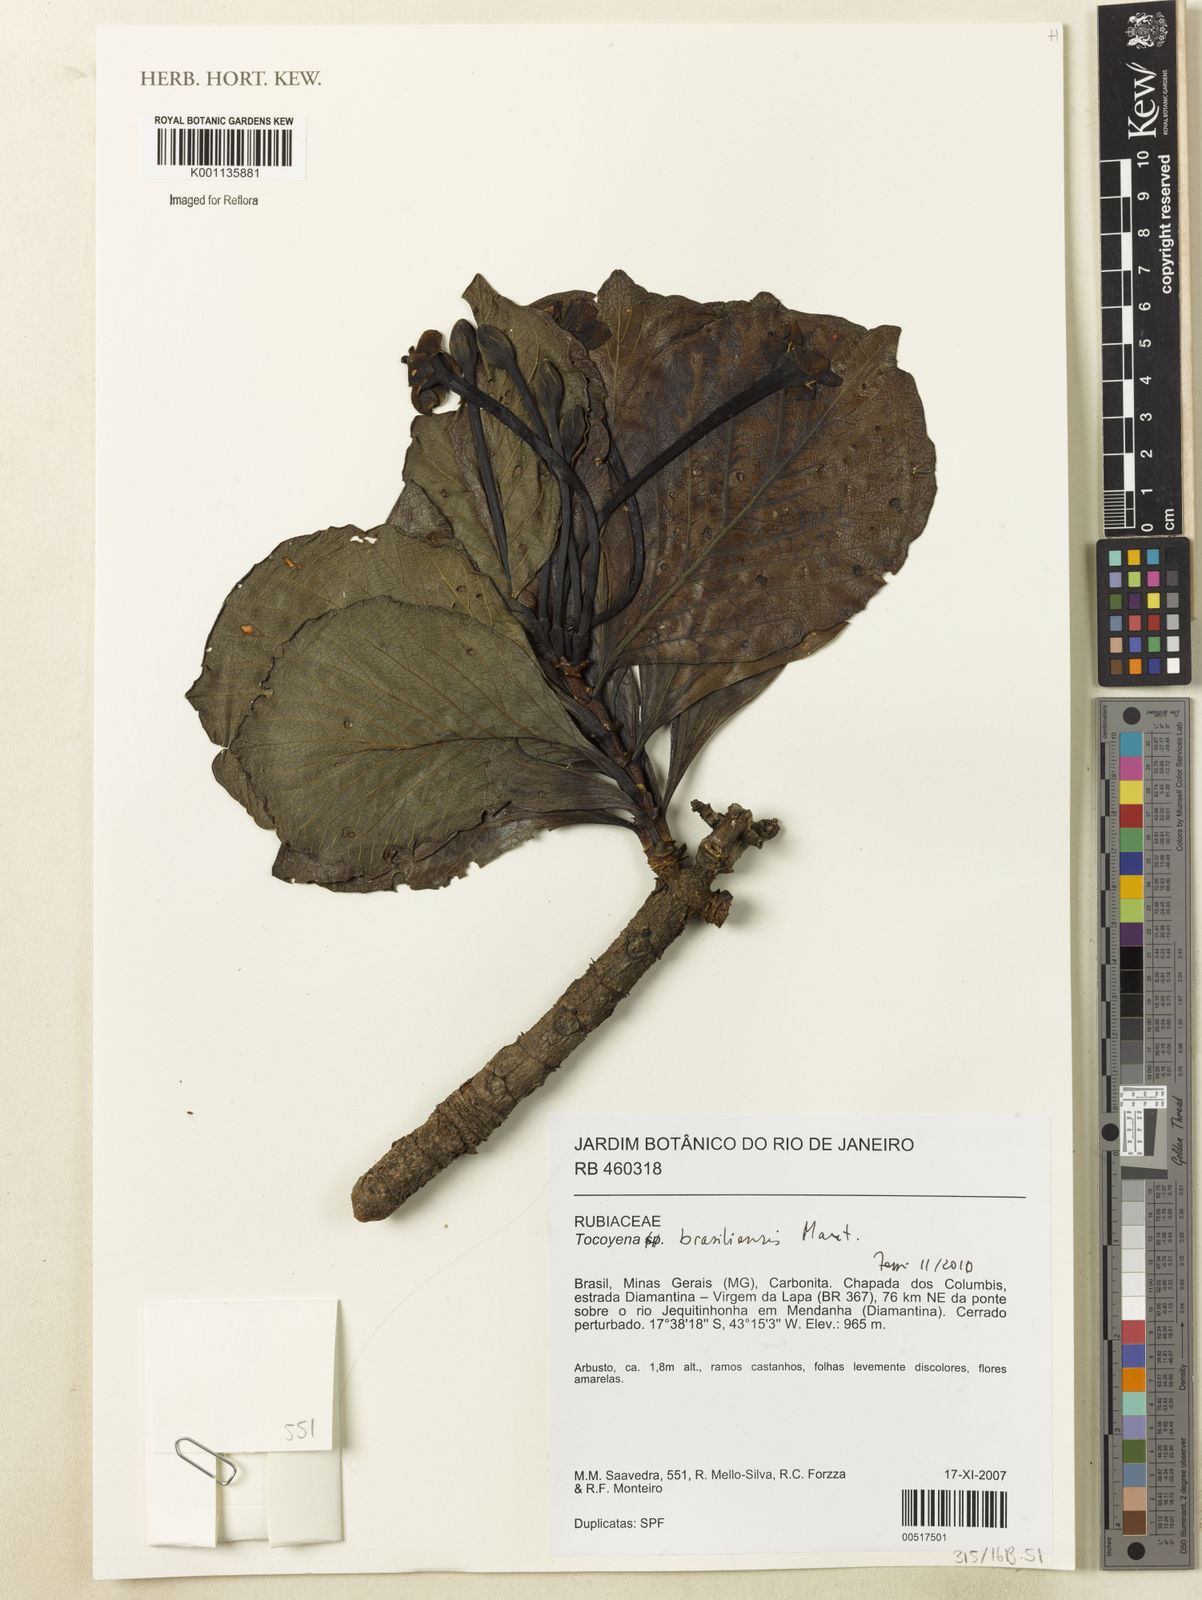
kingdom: Plantae
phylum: Tracheophyta
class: Magnoliopsida
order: Gentianales
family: Rubiaceae
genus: Tocoyena
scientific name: Tocoyena sprucei
